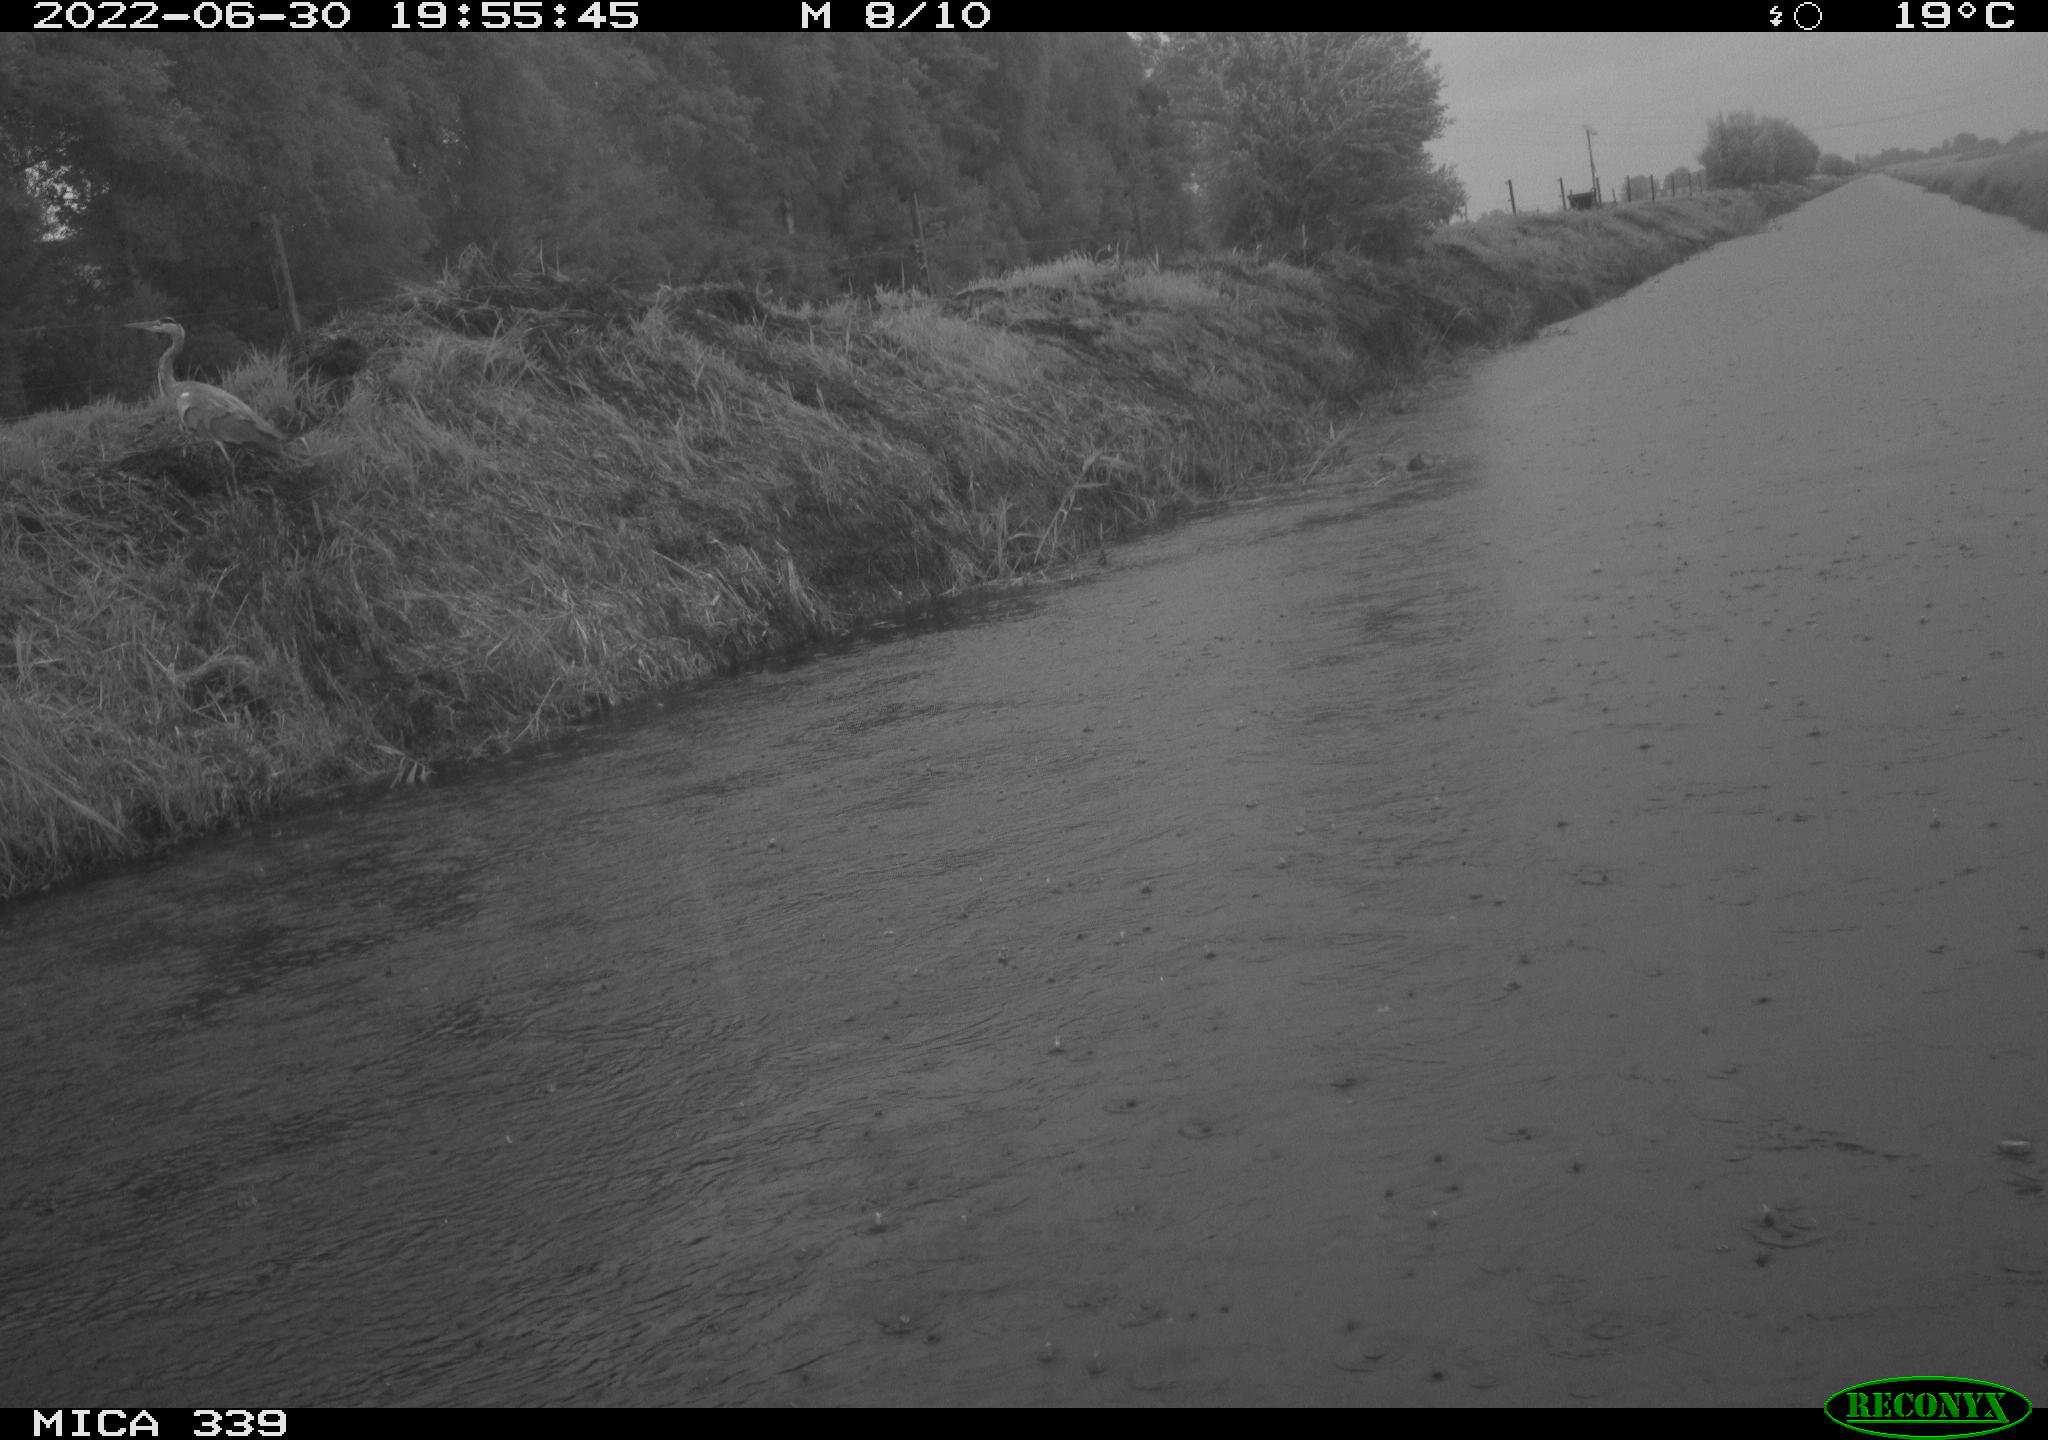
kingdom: Animalia
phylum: Chordata
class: Aves
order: Pelecaniformes
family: Ardeidae
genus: Ardea
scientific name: Ardea cinerea
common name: Grey heron
